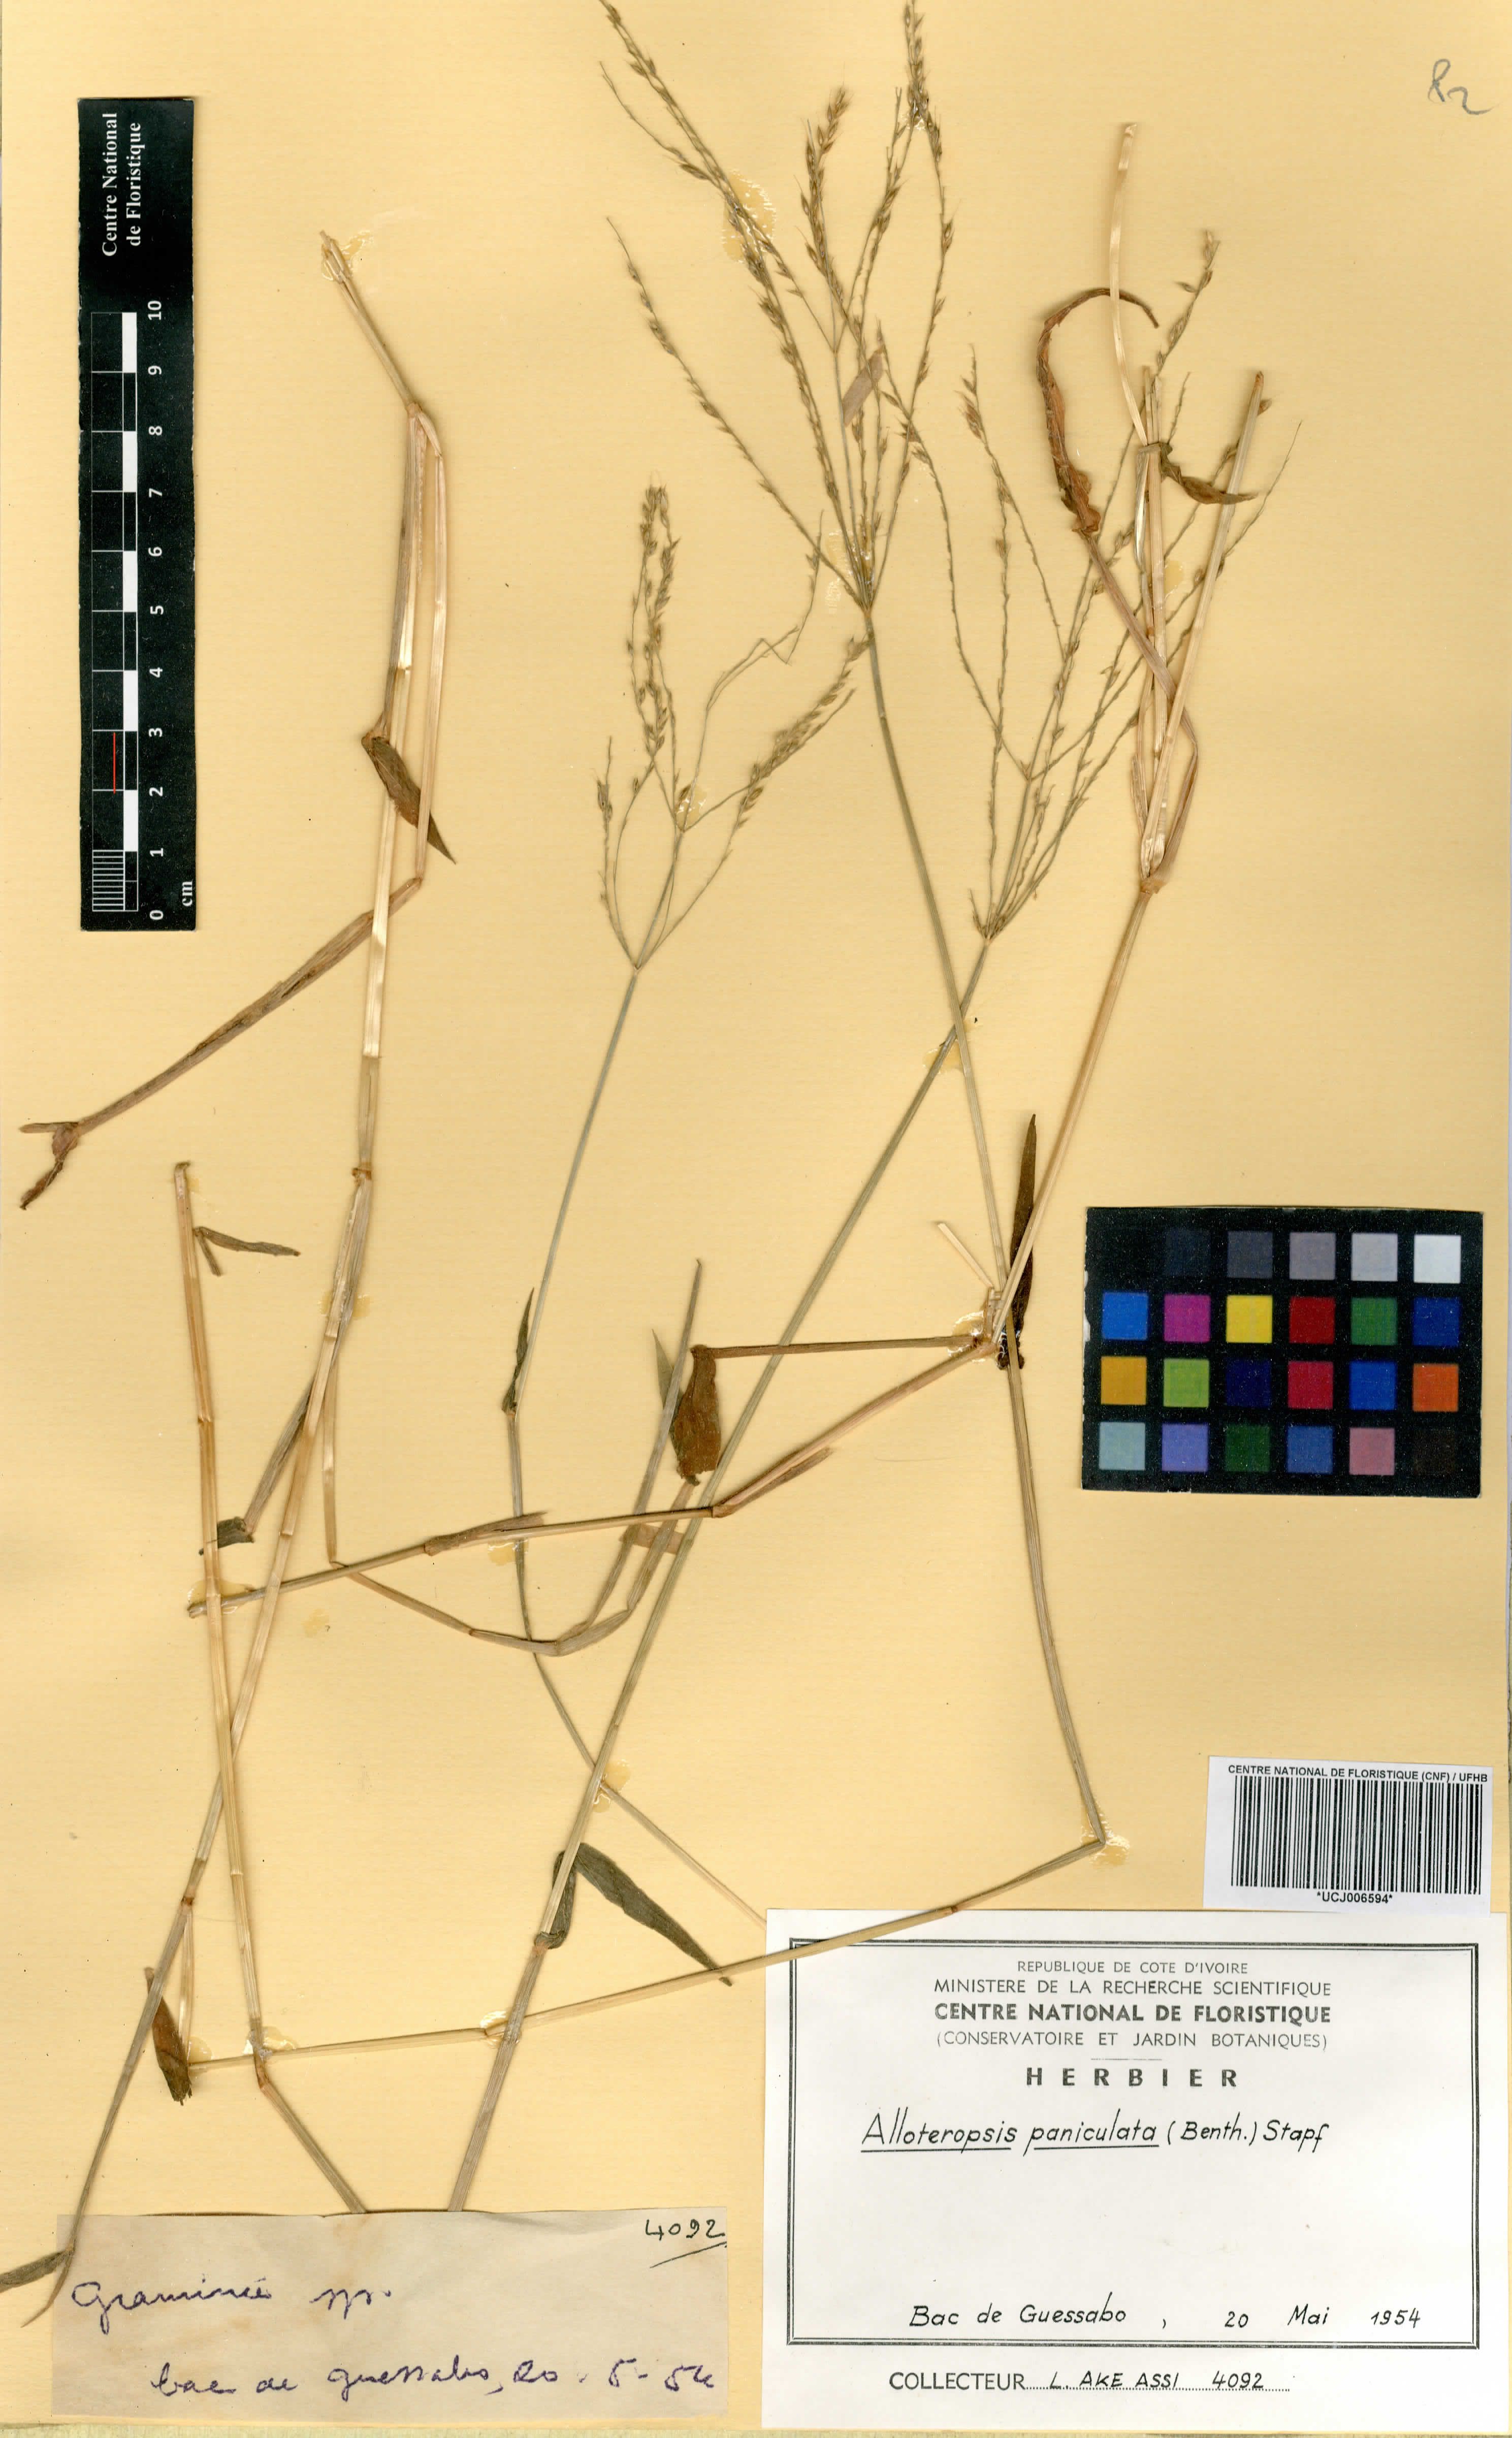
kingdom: Plantae
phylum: Tracheophyta
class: Liliopsida
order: Poales
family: Poaceae
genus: Alloteropsis
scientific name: Alloteropsis paniculata
